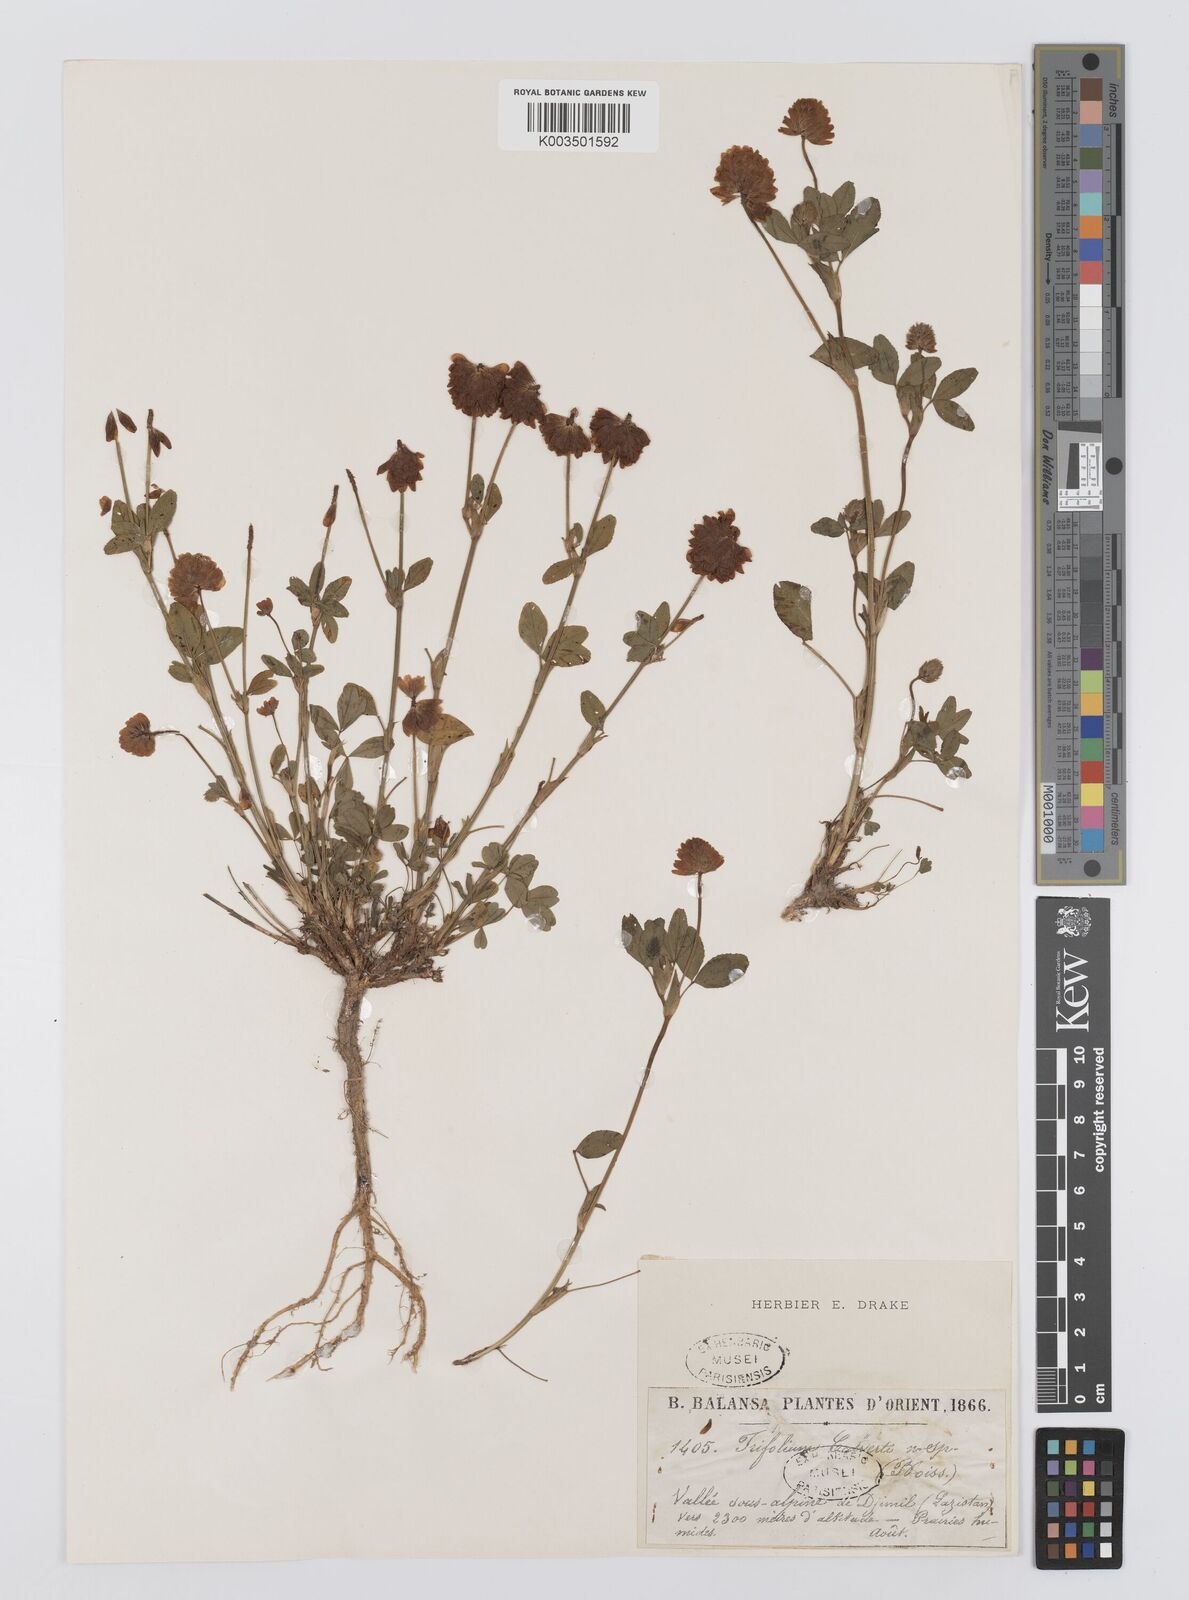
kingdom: Plantae
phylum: Tracheophyta
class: Magnoliopsida
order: Fabales
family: Fabaceae
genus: Trifolium
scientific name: Trifolium
